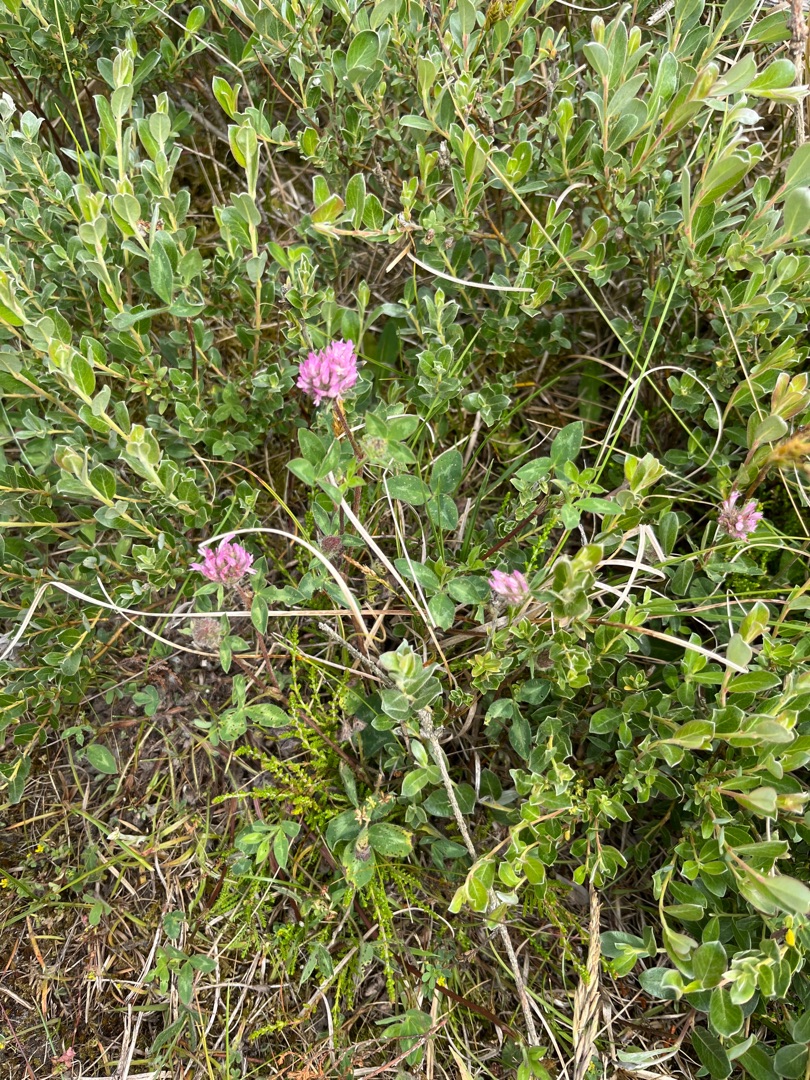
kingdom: Plantae
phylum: Tracheophyta
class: Magnoliopsida
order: Fabales
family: Fabaceae
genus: Trifolium
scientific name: Trifolium pratense
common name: Rød-kløver
